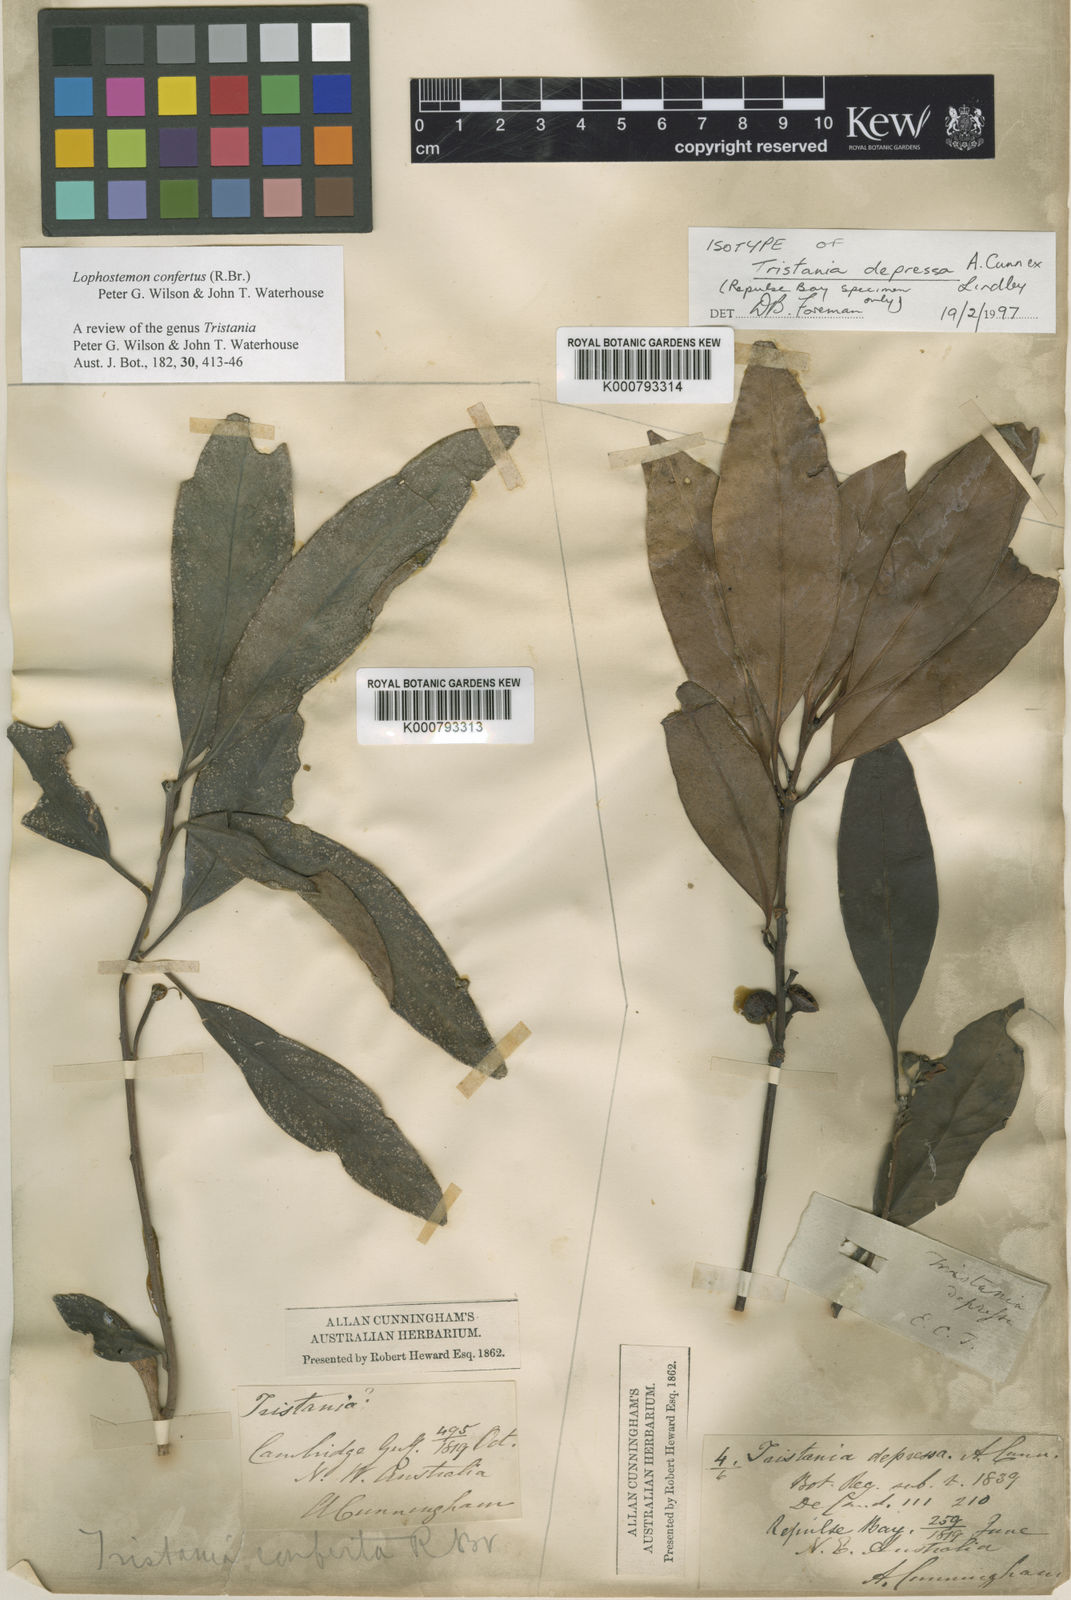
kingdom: Plantae
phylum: Tracheophyta
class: Magnoliopsida
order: Myrtales
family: Myrtaceae
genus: Lophostemon
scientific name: Lophostemon confertus
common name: Brisbane box
